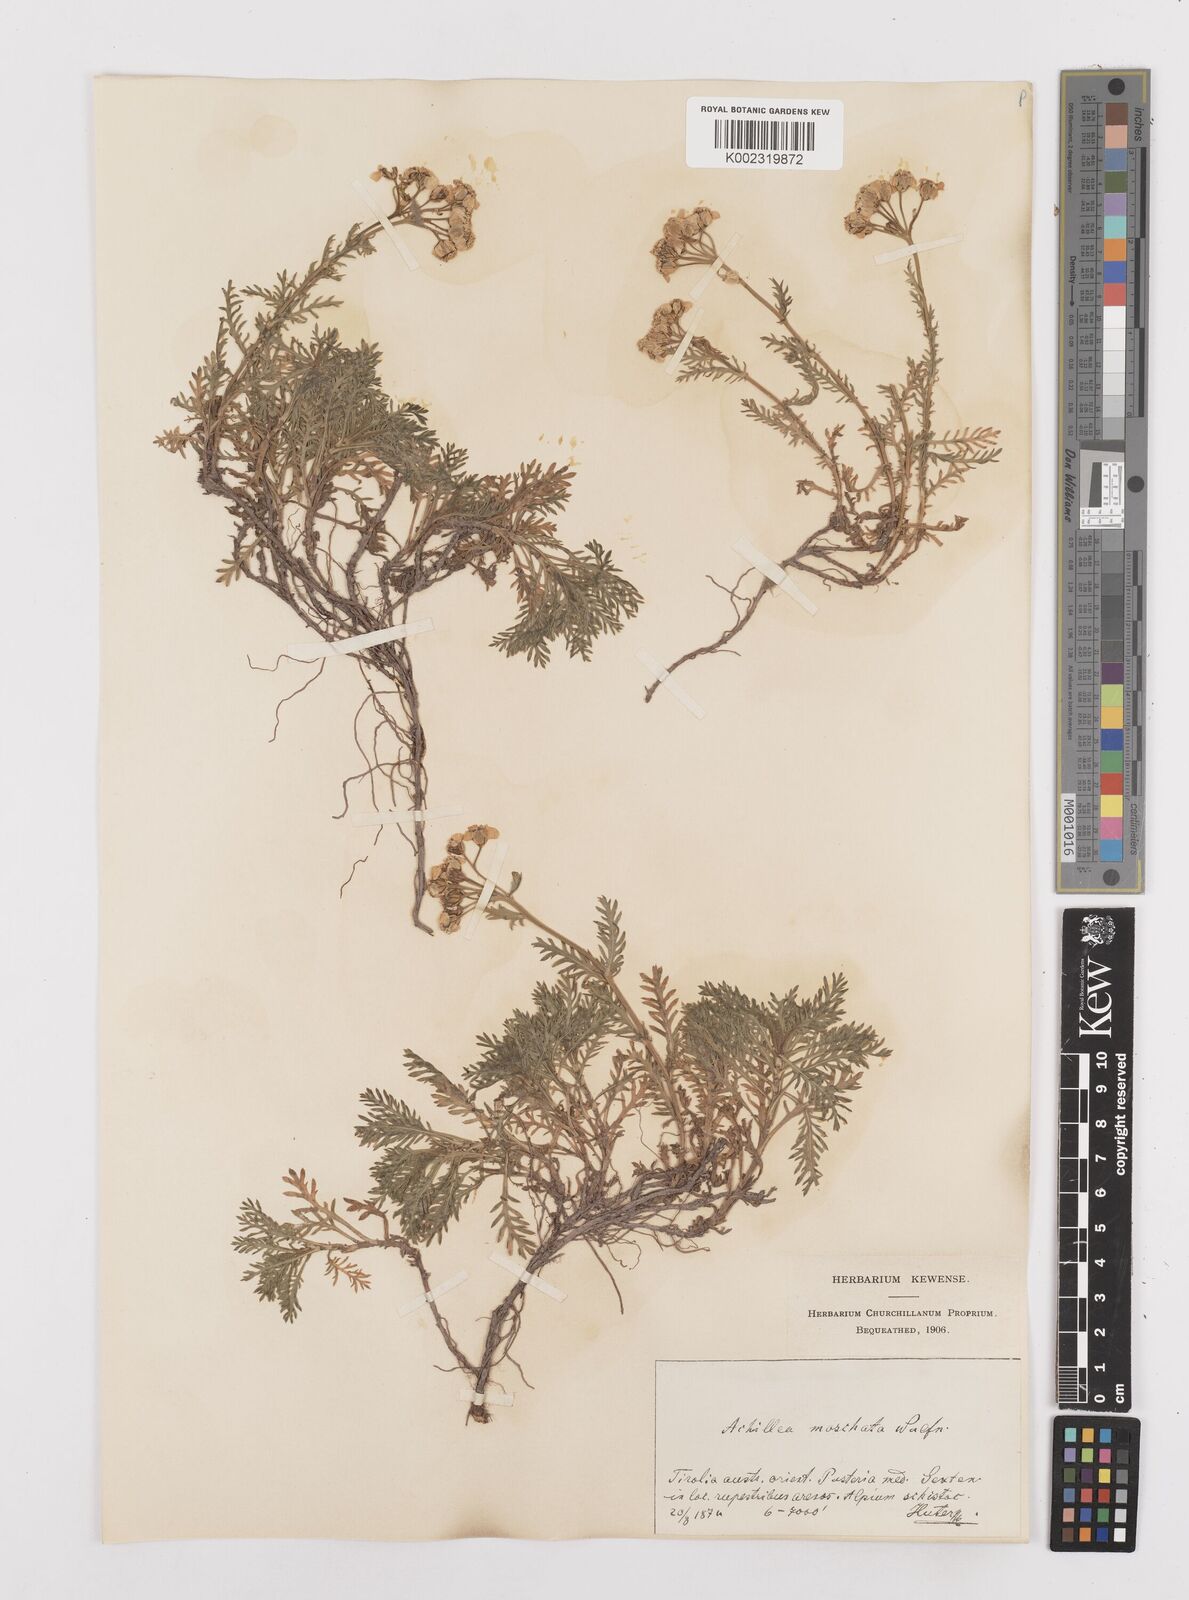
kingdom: Plantae
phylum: Tracheophyta
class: Magnoliopsida
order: Asterales
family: Asteraceae
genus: Achillea
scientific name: Achillea erba-rotta
